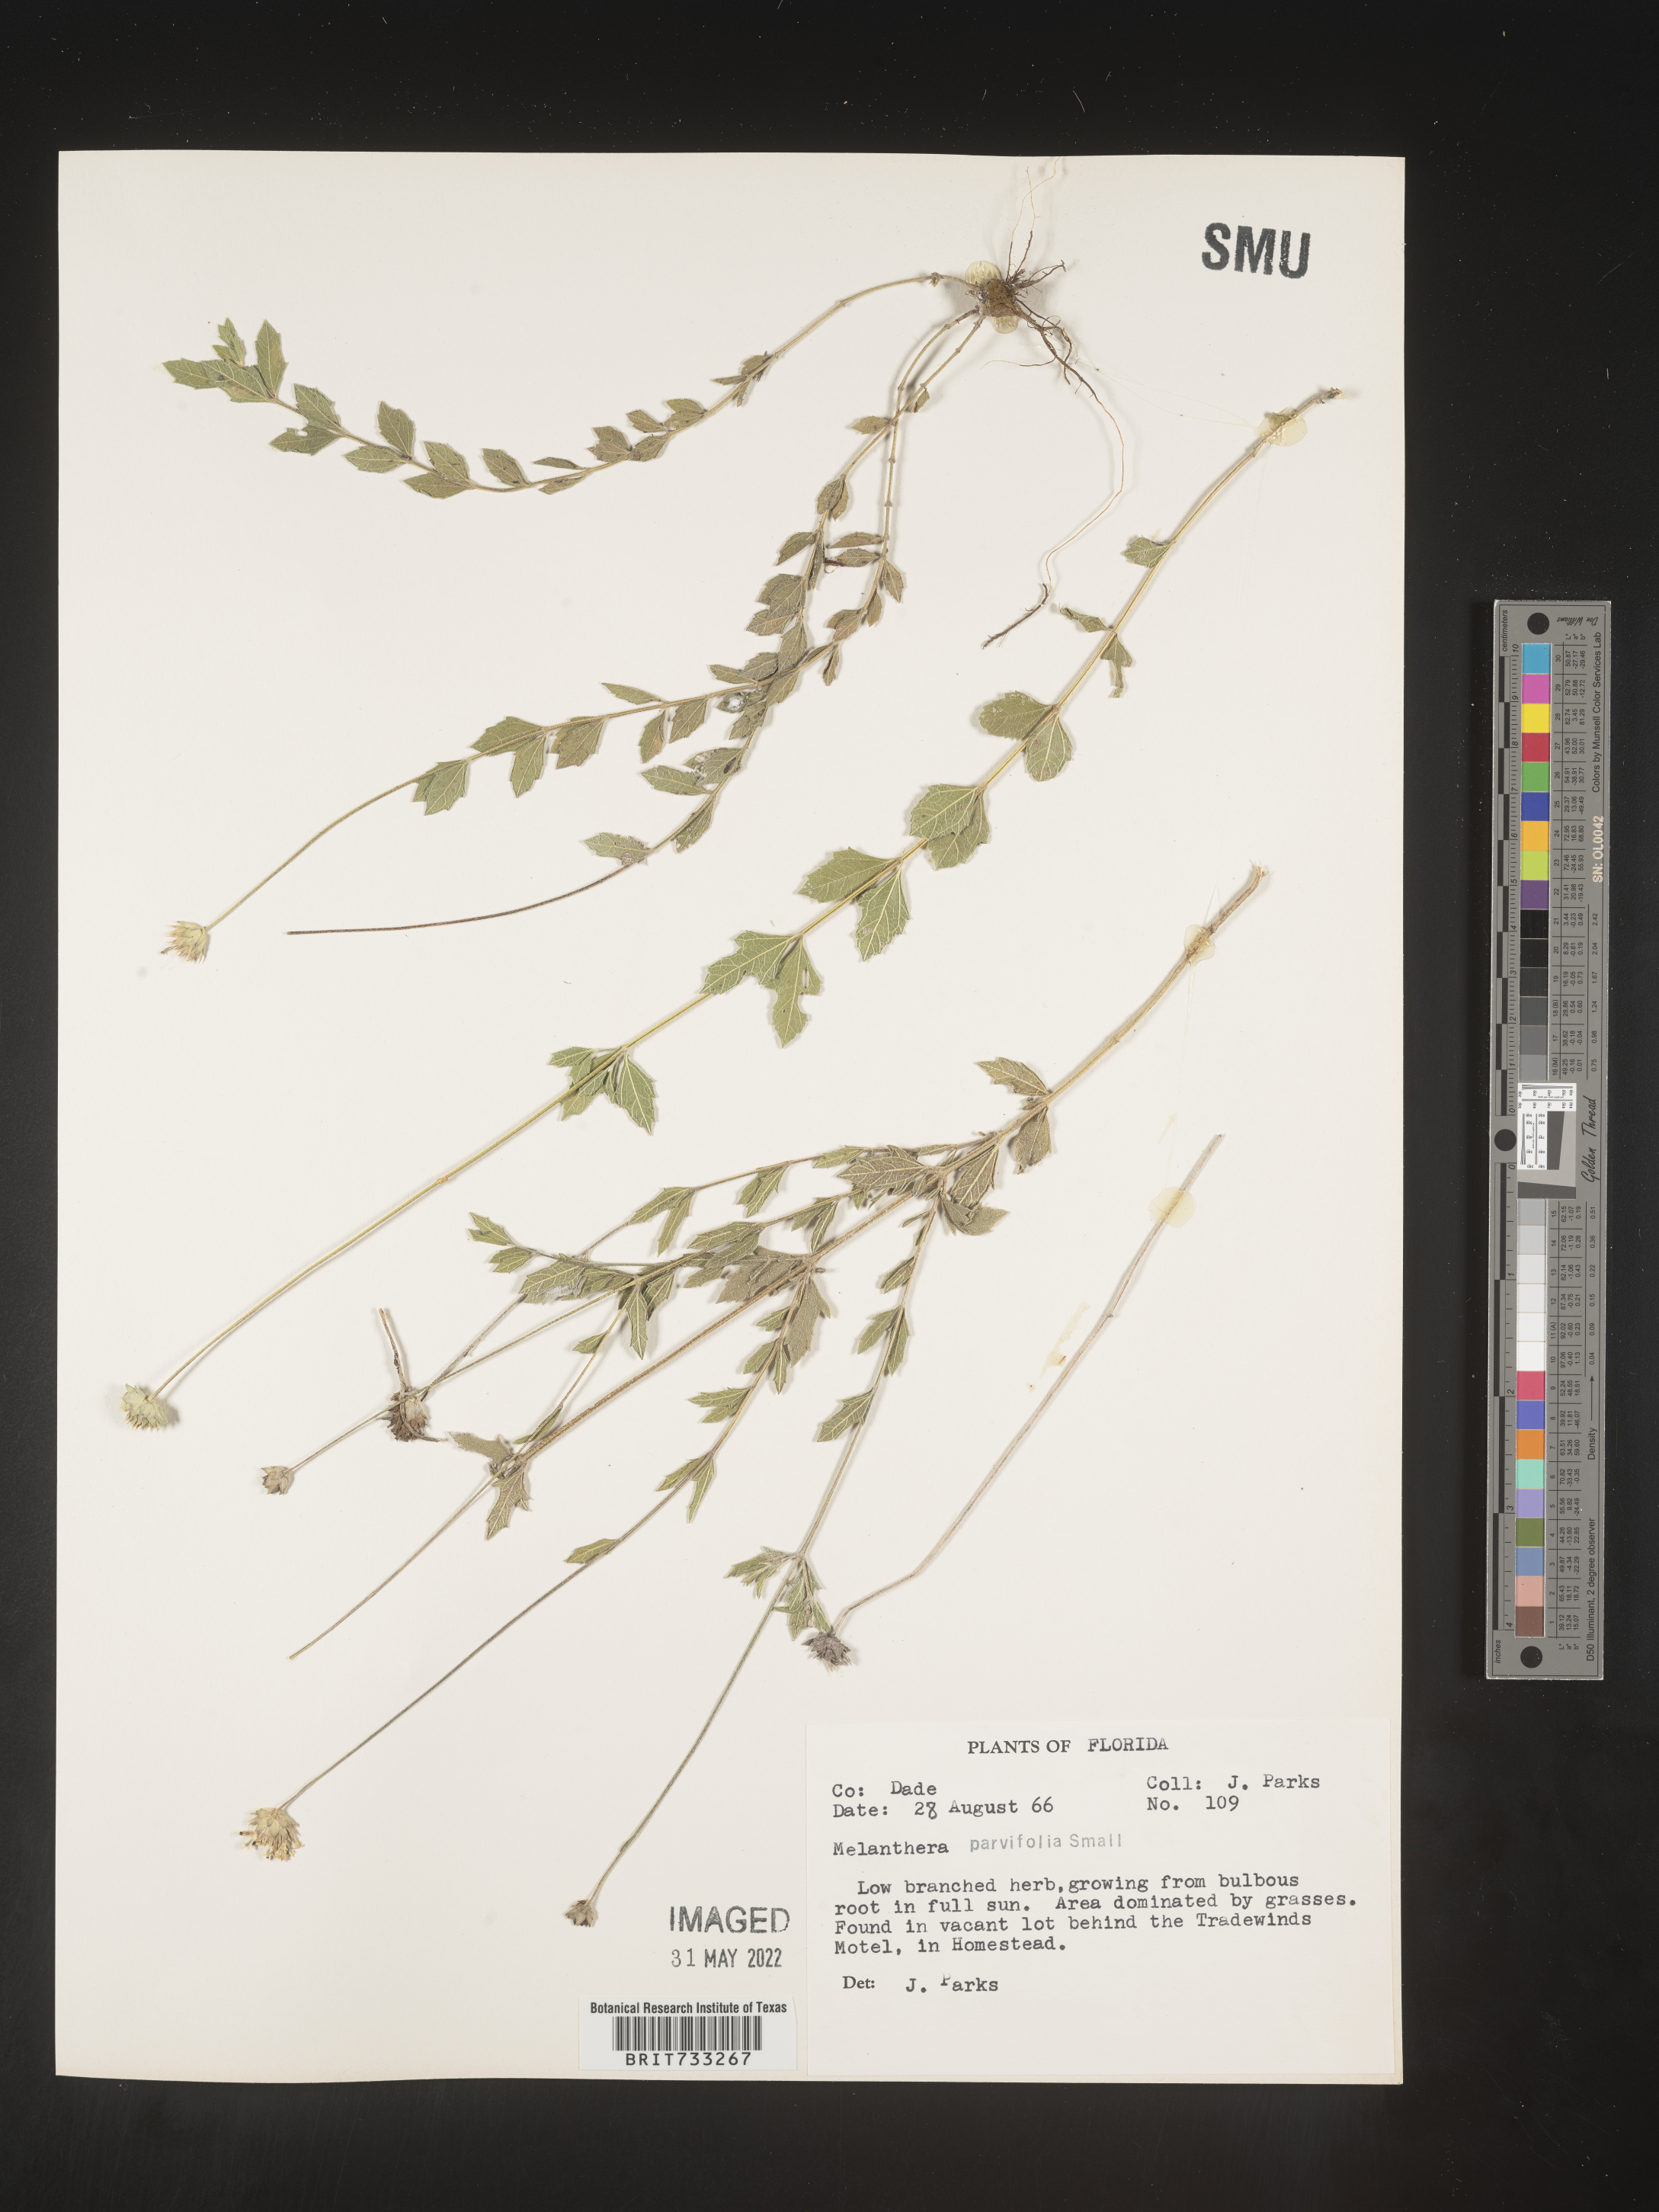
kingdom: Plantae
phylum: Tracheophyta
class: Magnoliopsida
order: Asterales
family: Asteraceae
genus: Melanthera
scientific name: Melanthera parvifolia
